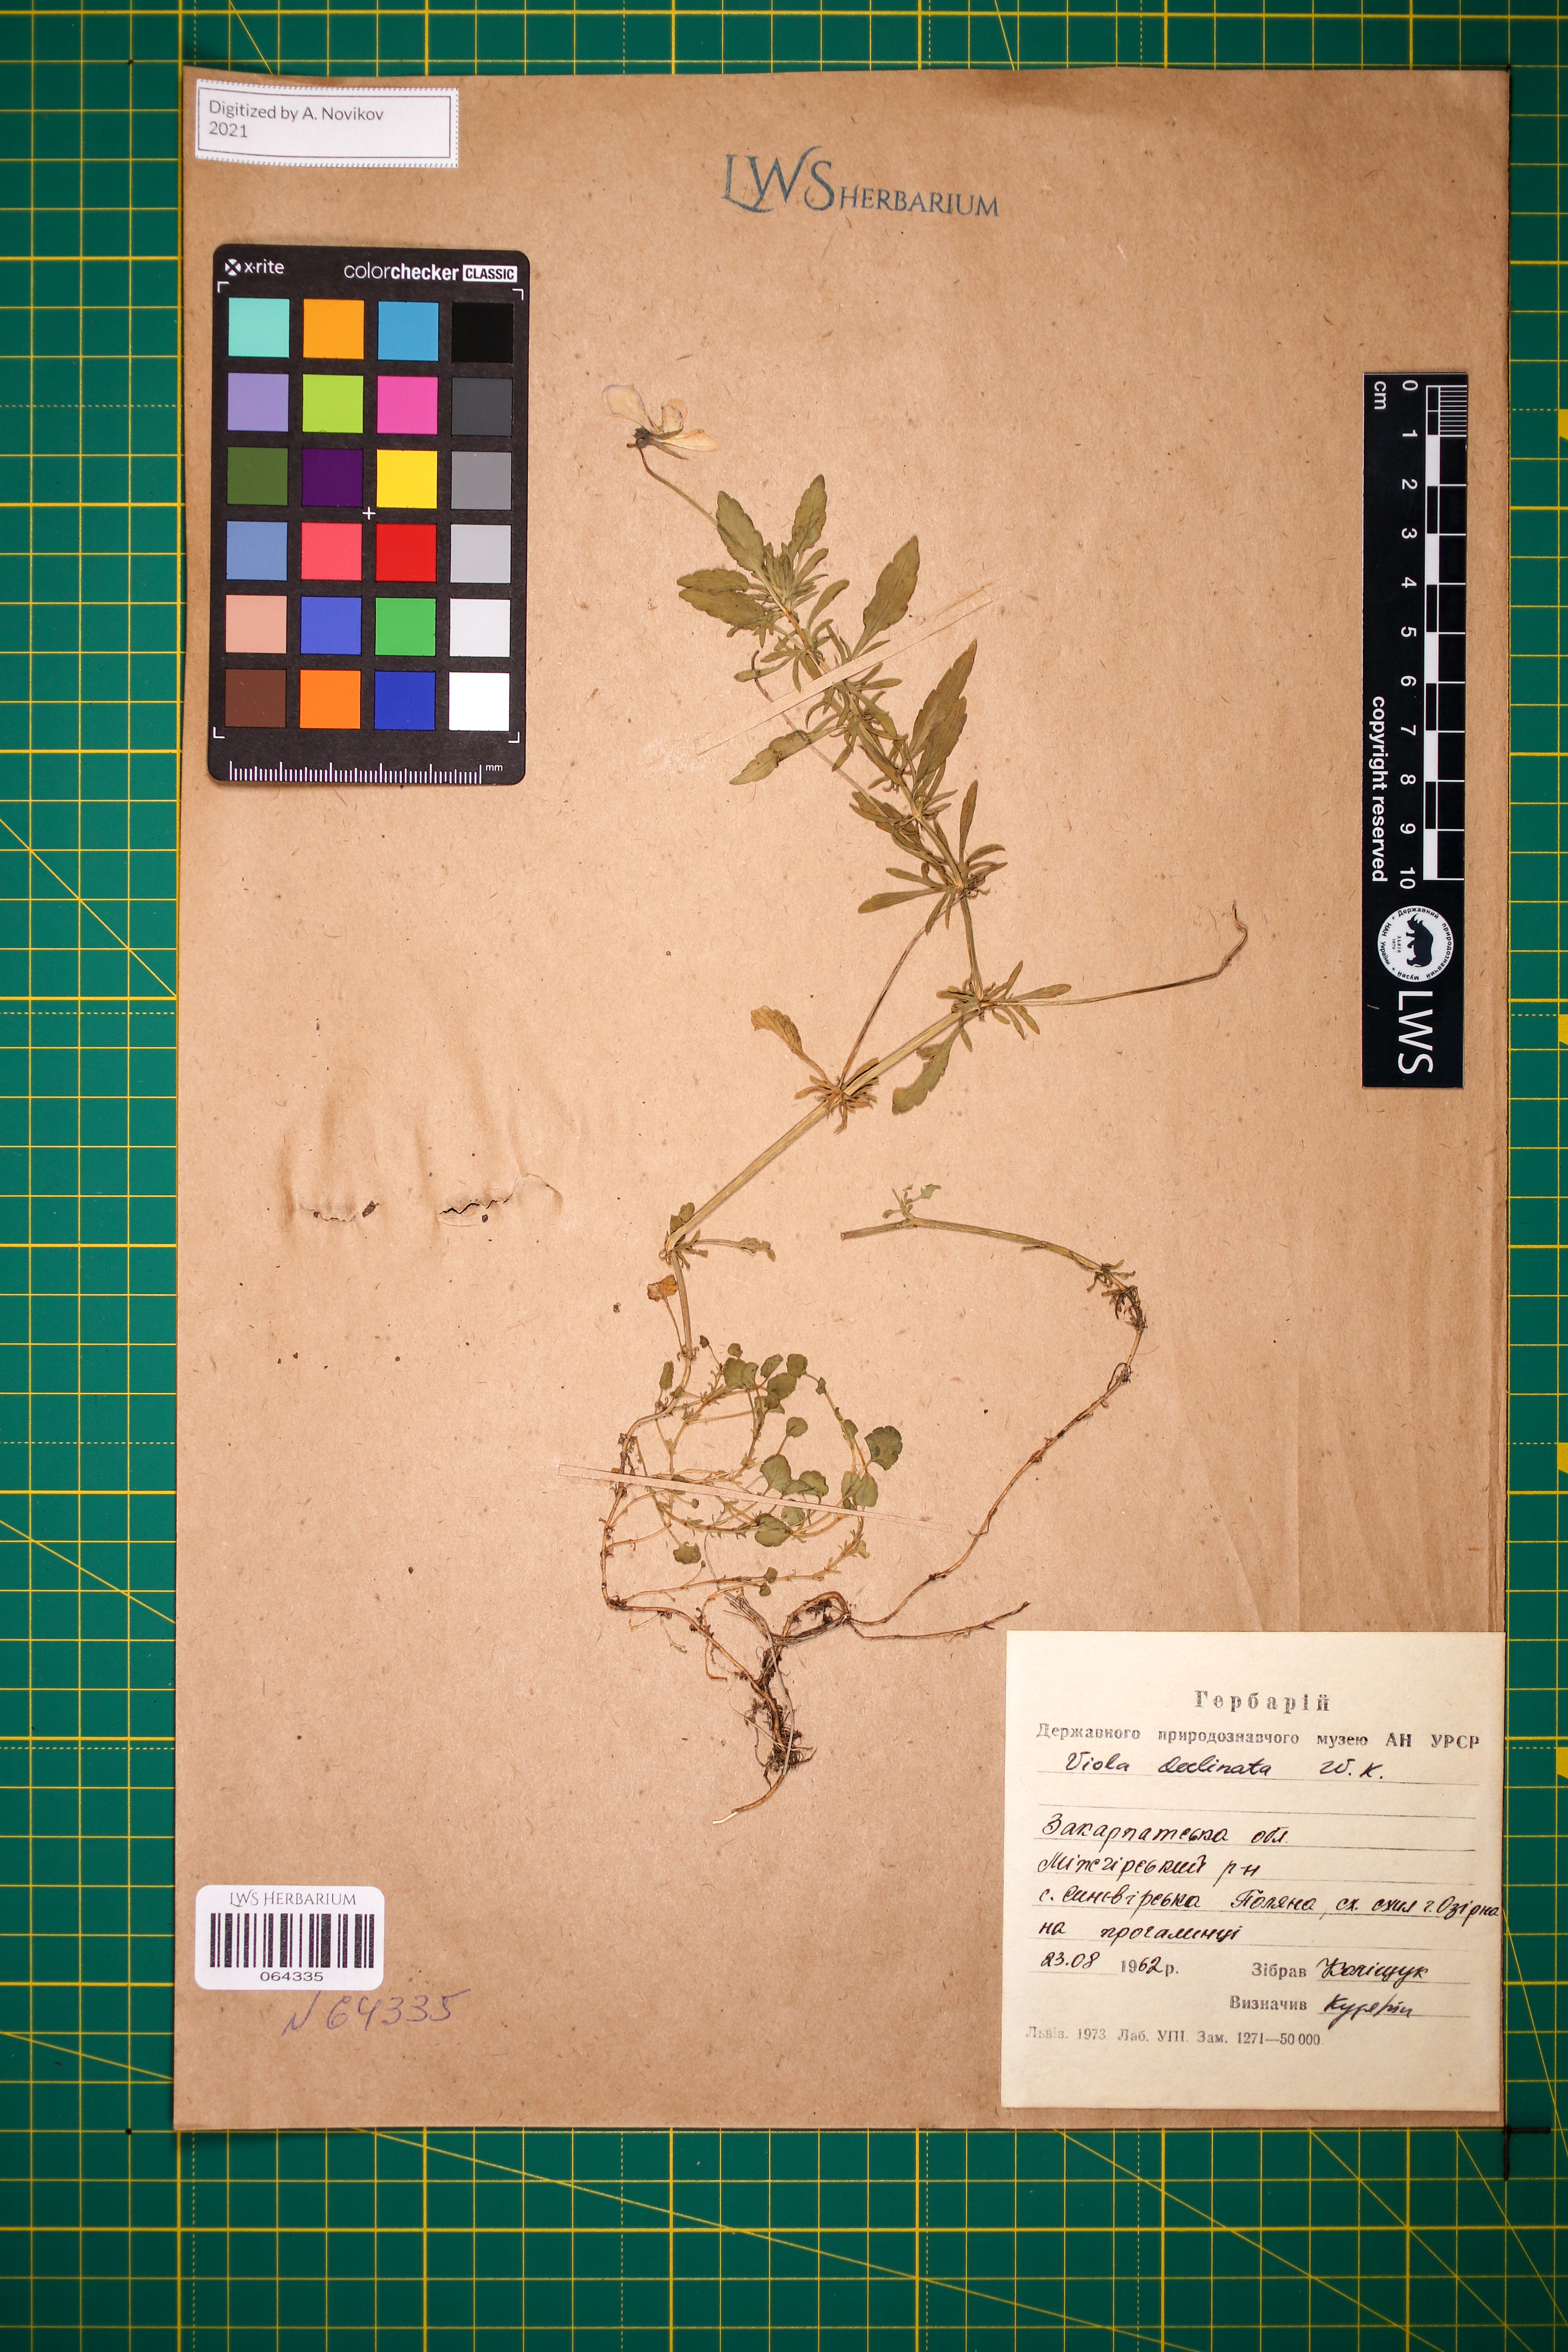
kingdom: Plantae
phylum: Tracheophyta
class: Magnoliopsida
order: Malpighiales
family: Violaceae
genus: Viola
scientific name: Viola declinata
